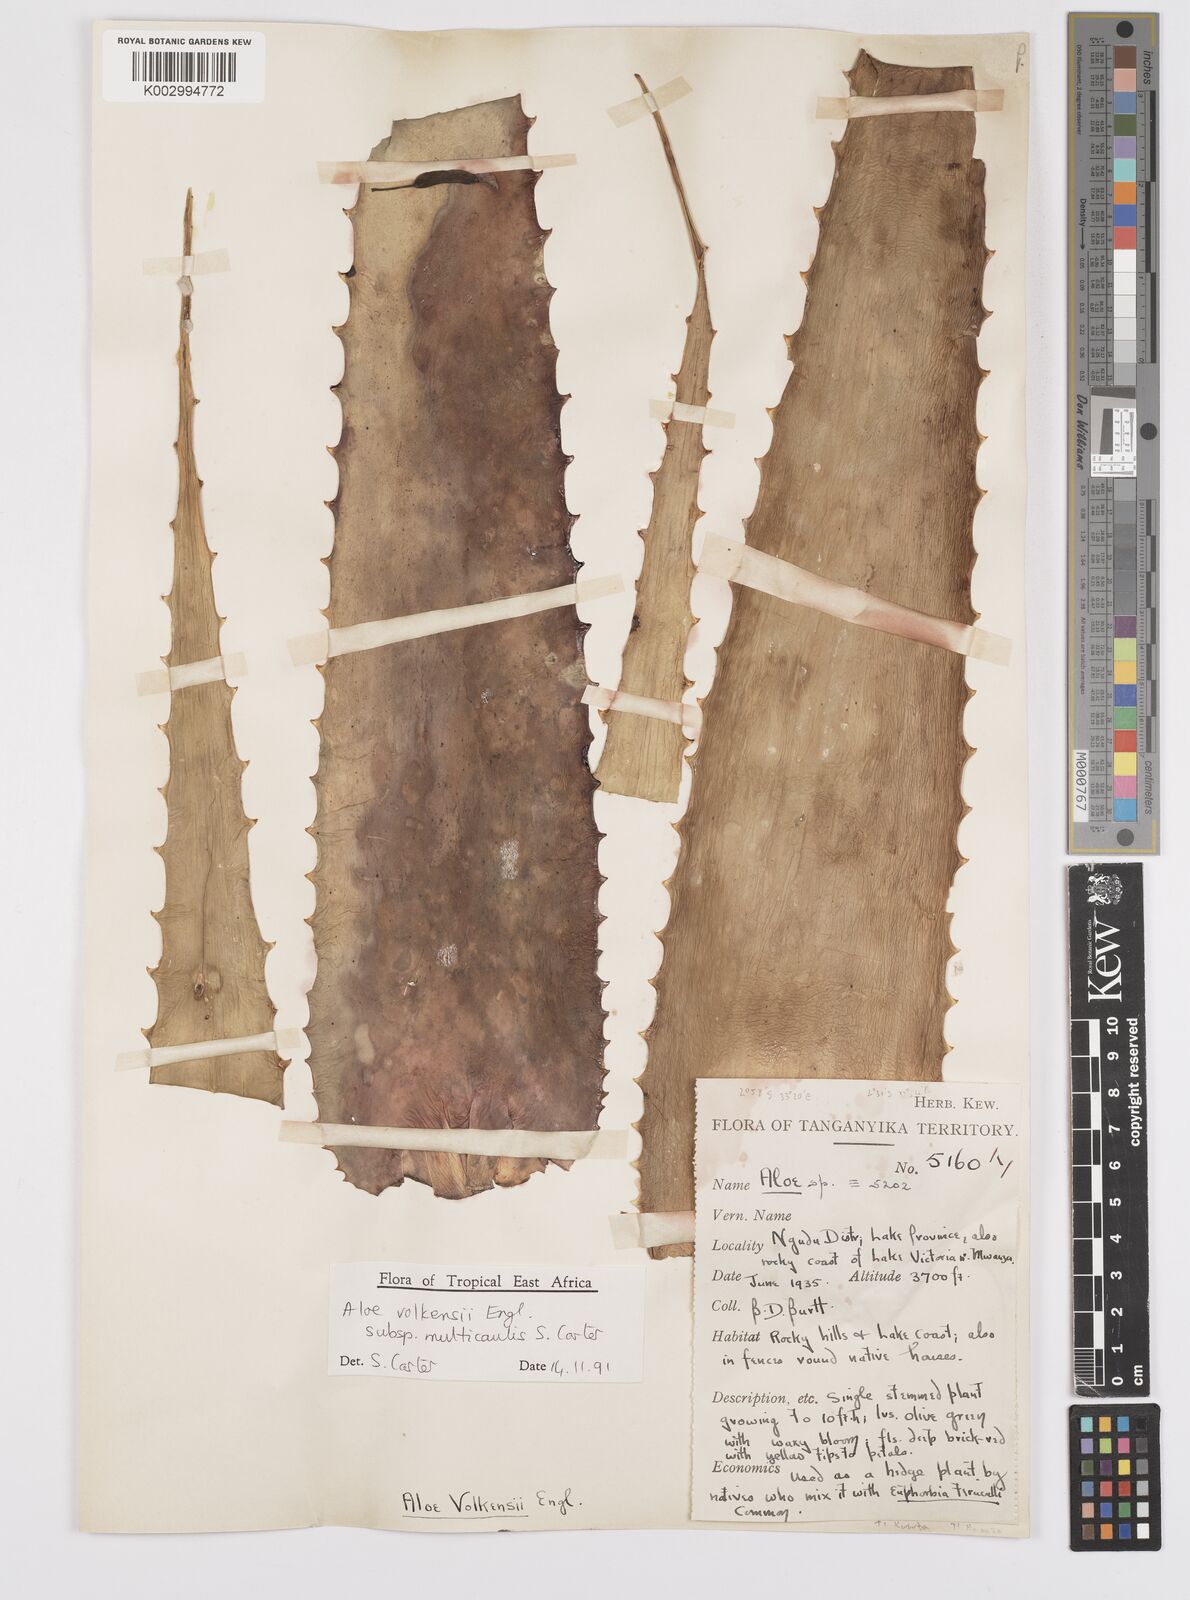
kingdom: Plantae
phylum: Tracheophyta
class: Liliopsida
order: Asparagales
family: Asphodelaceae
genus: Aloe
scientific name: Aloe volkensii
